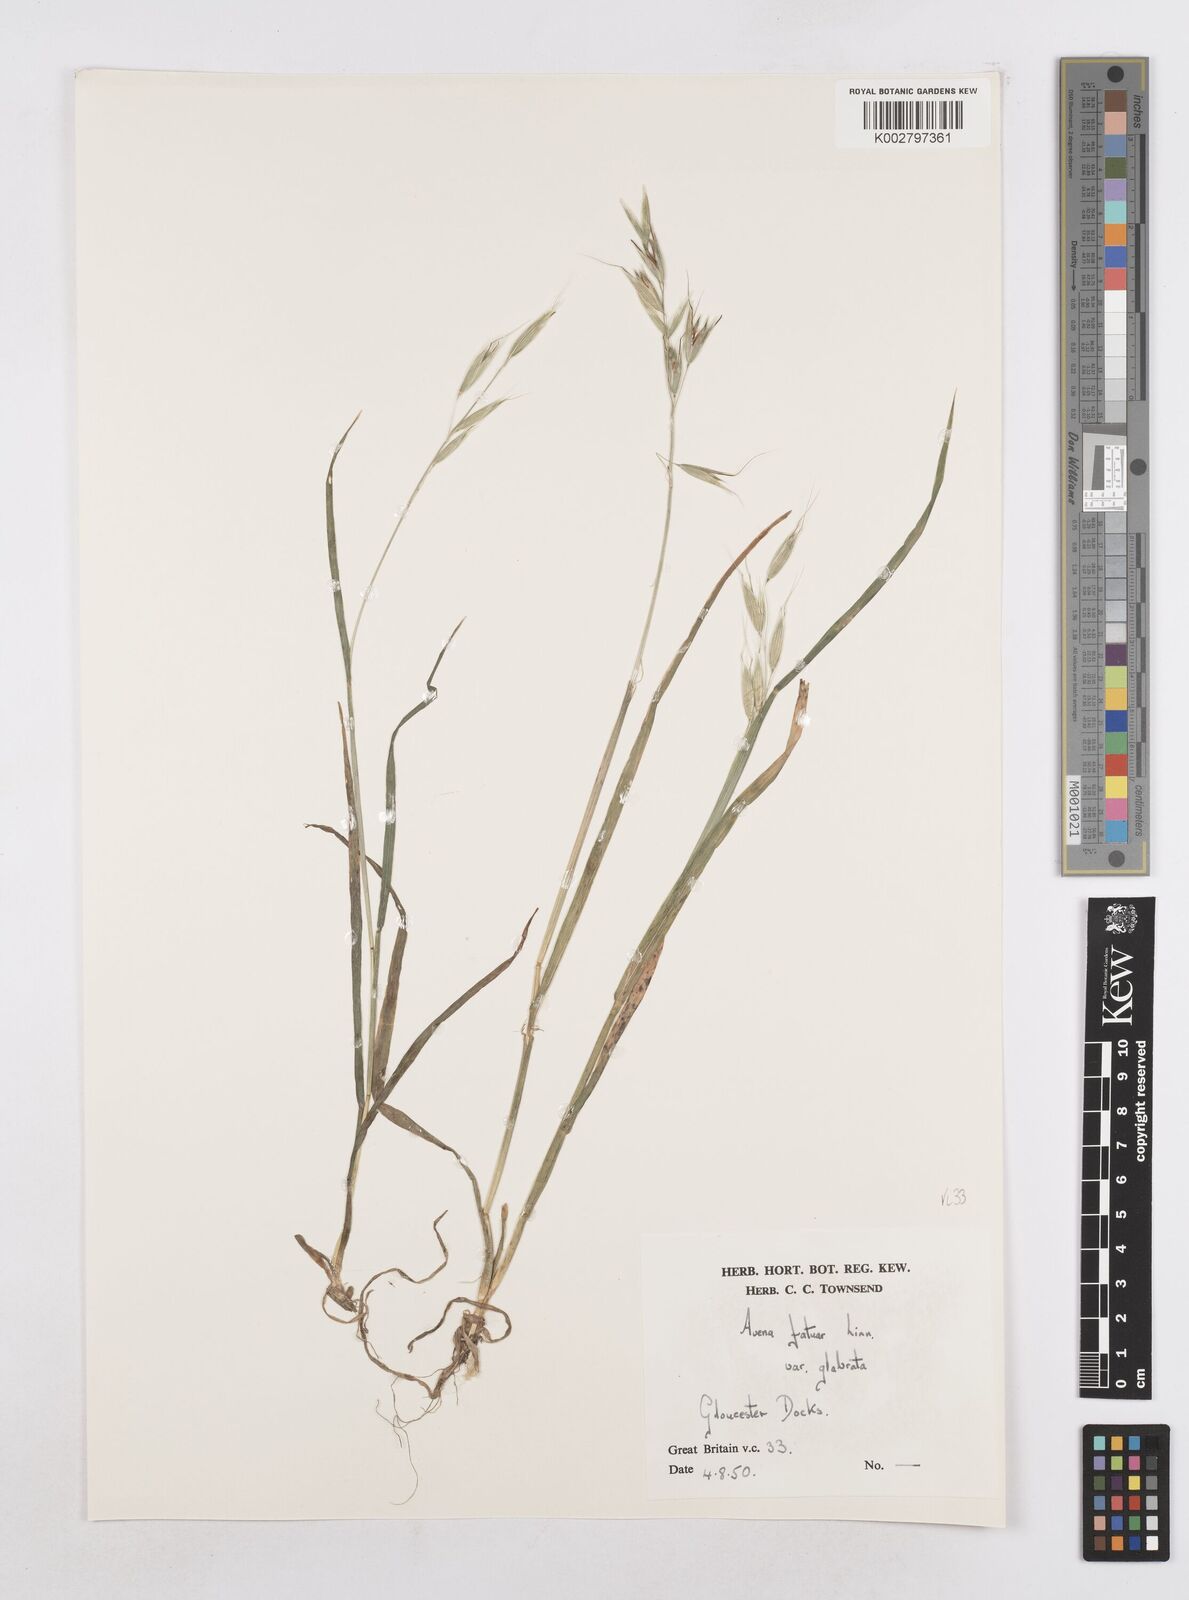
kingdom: Plantae
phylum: Tracheophyta
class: Liliopsida
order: Poales
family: Poaceae
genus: Avena
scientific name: Avena fatua
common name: Wild oat
